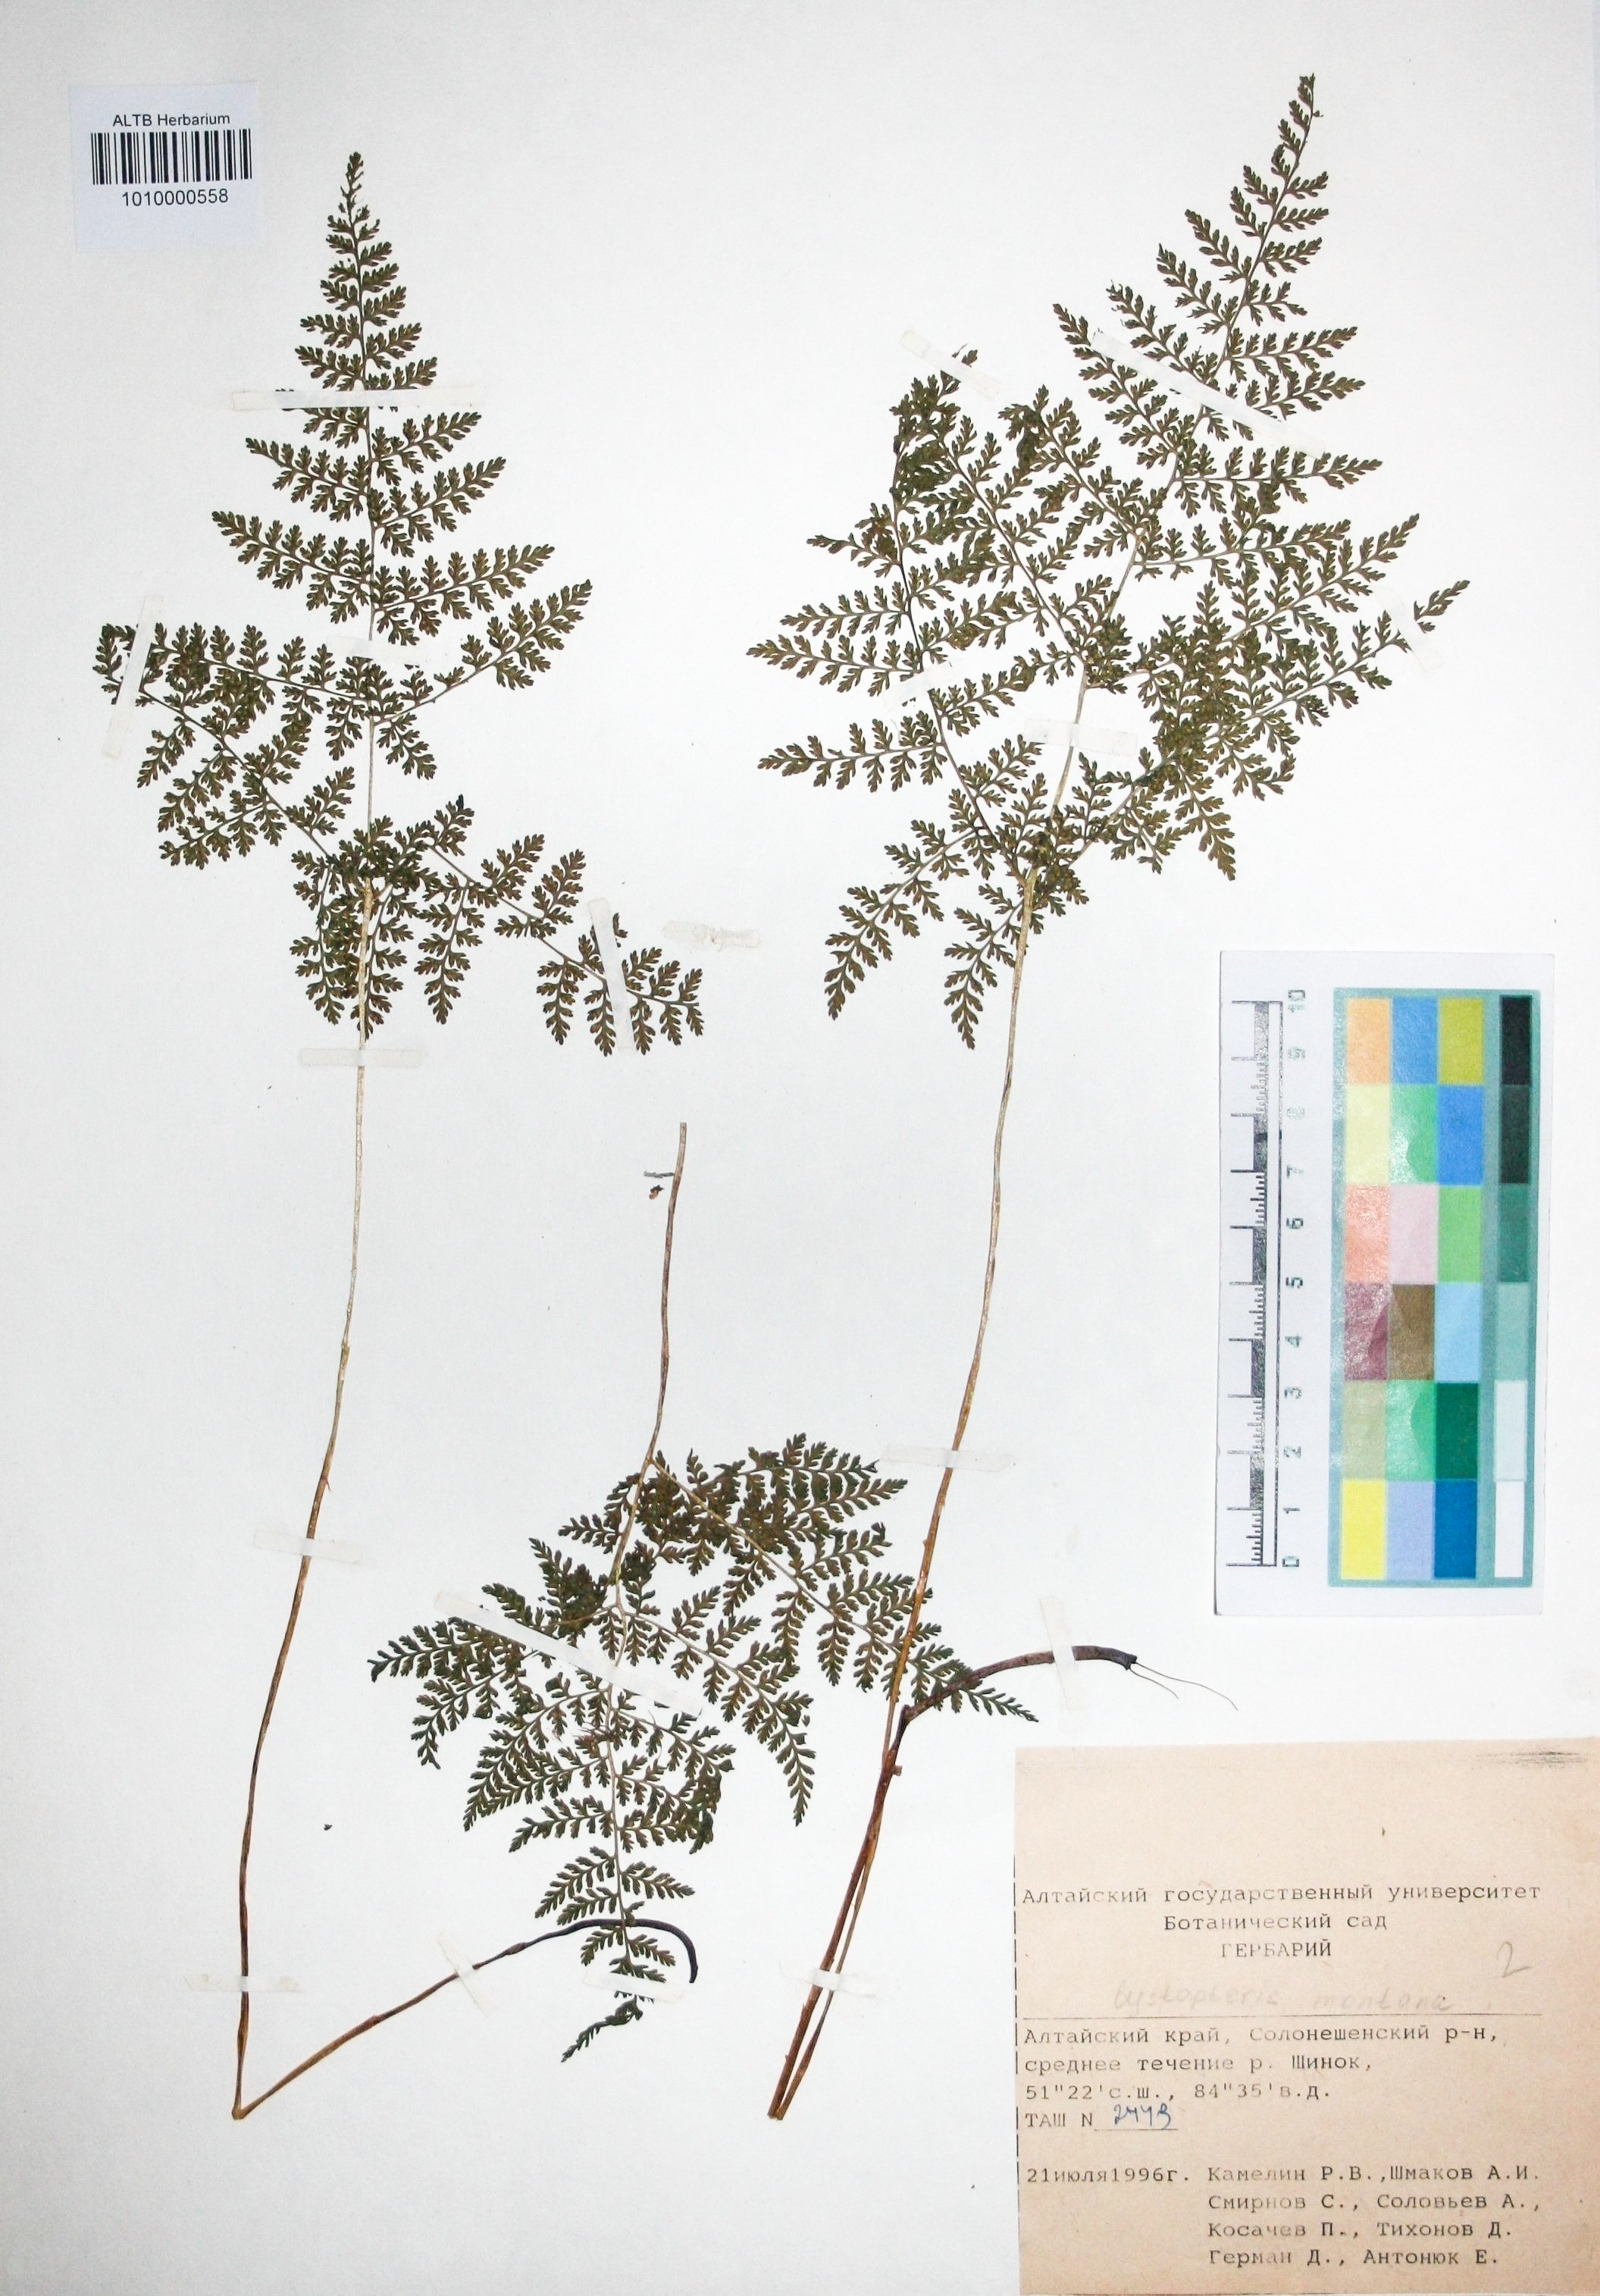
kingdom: Plantae
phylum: Tracheophyta
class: Polypodiopsida
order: Polypodiales
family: Cystopteridaceae
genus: Cystopteris
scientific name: Cystopteris montana
